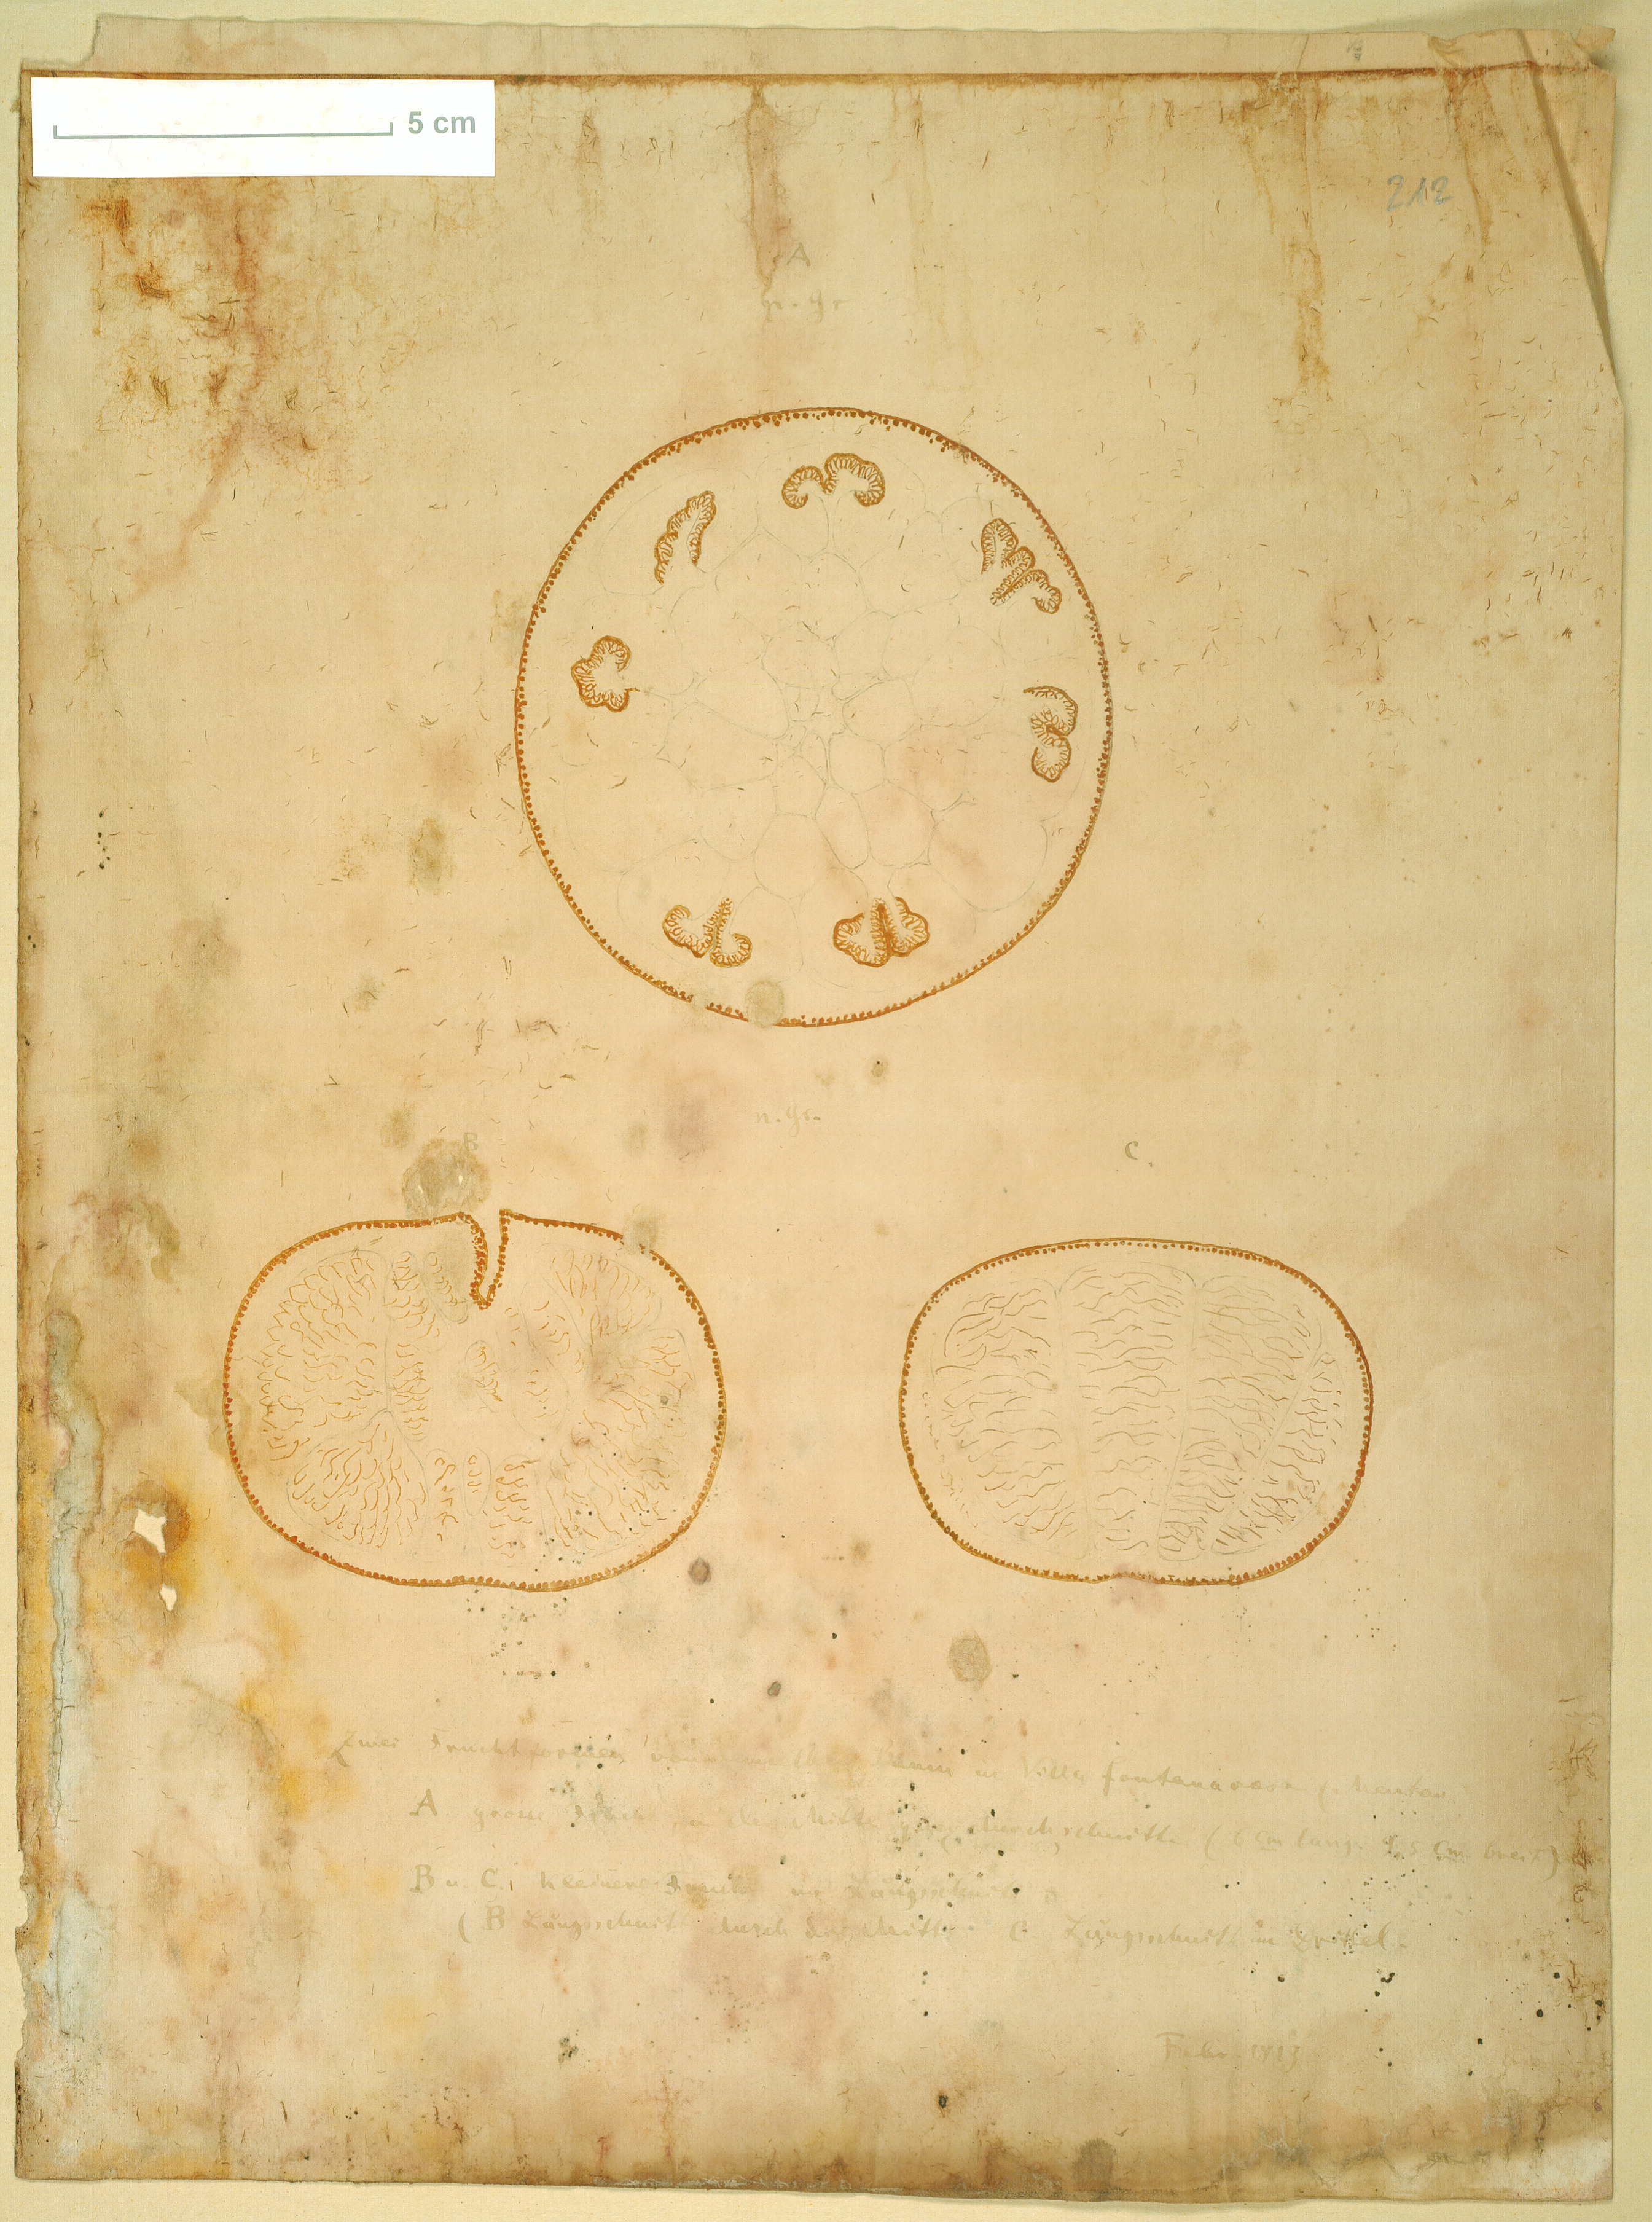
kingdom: Plantae
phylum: Tracheophyta
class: Magnoliopsida
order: Sapindales
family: Rutaceae
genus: Citrus
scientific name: Citrus
